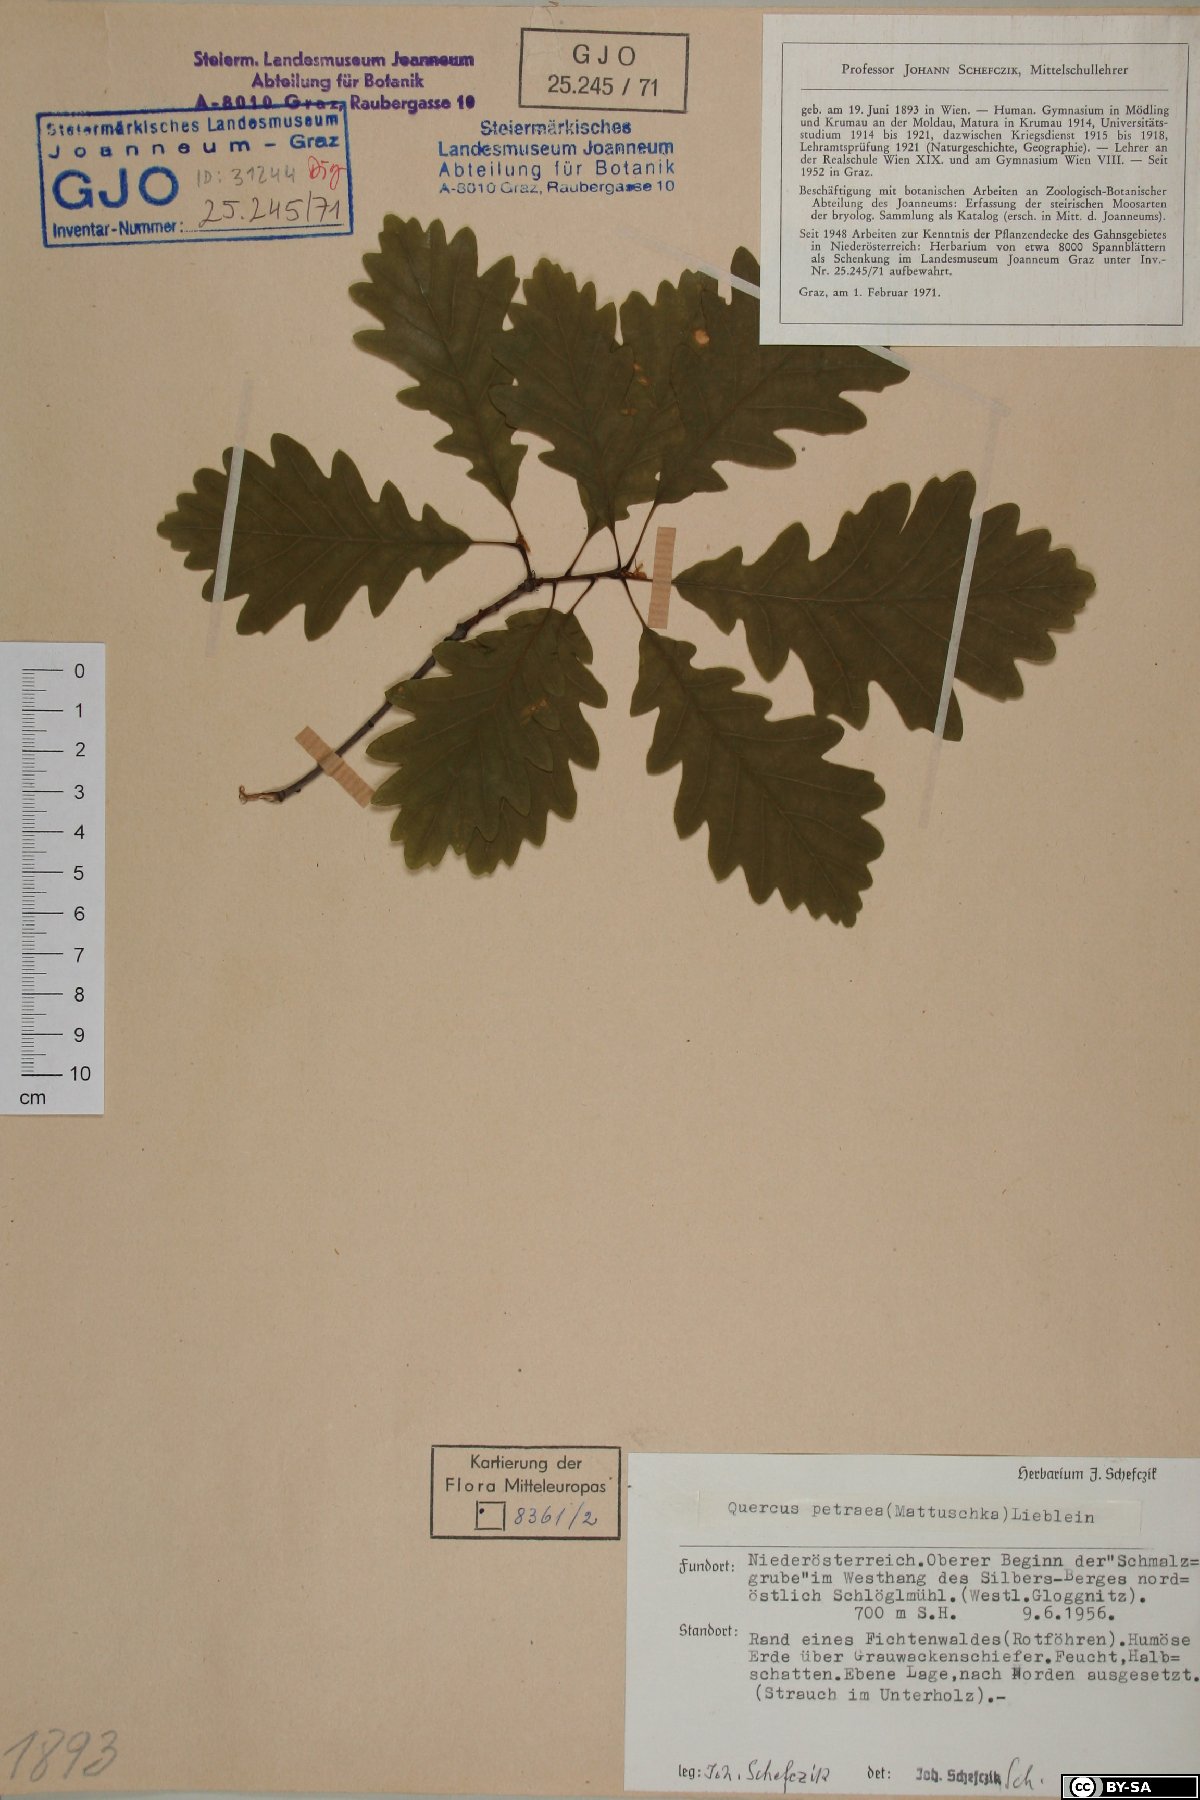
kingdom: Plantae
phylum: Tracheophyta
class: Magnoliopsida
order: Fagales
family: Fagaceae
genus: Quercus
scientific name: Quercus petraea
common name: Sessile oak
